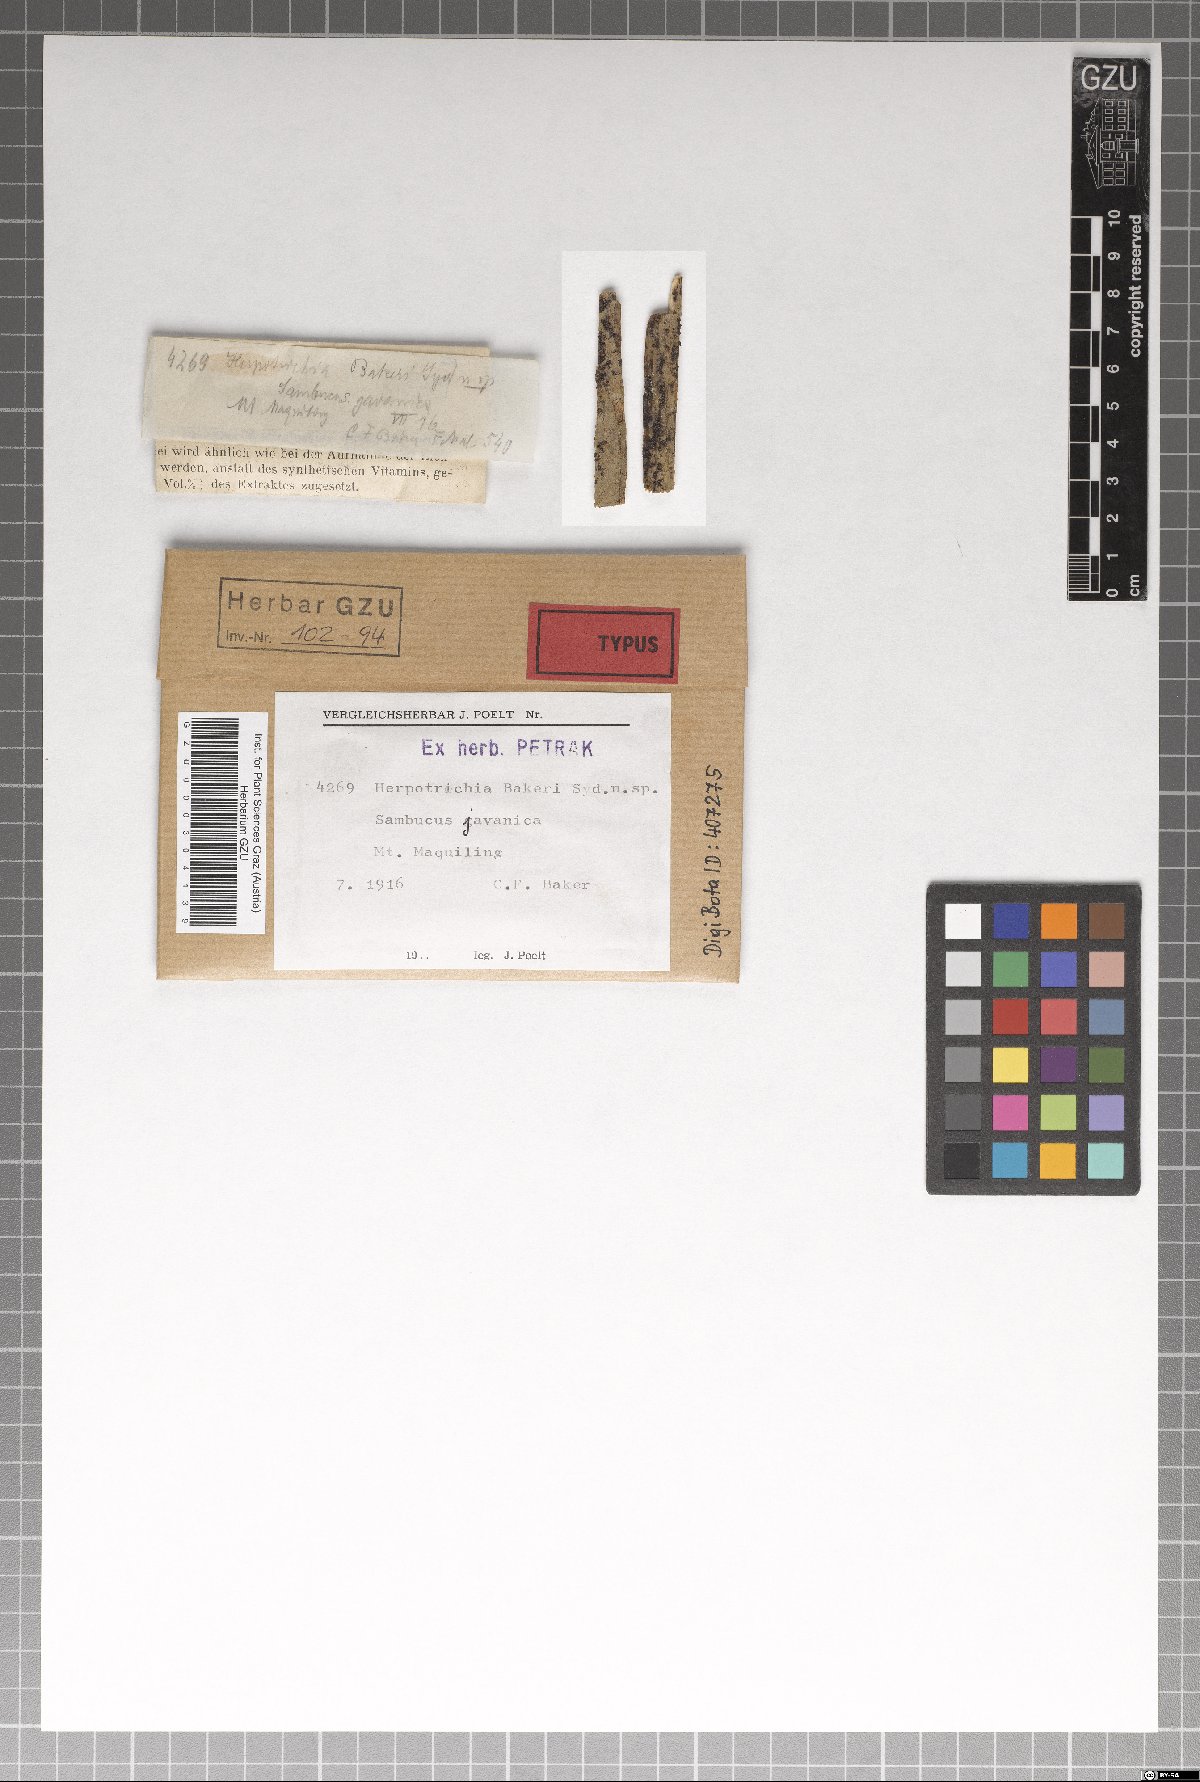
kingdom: Fungi
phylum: Ascomycota
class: Dothideomycetes
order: Pleosporales
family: Melanommataceae
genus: Herpotrichia
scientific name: Herpotrichia bakeri
